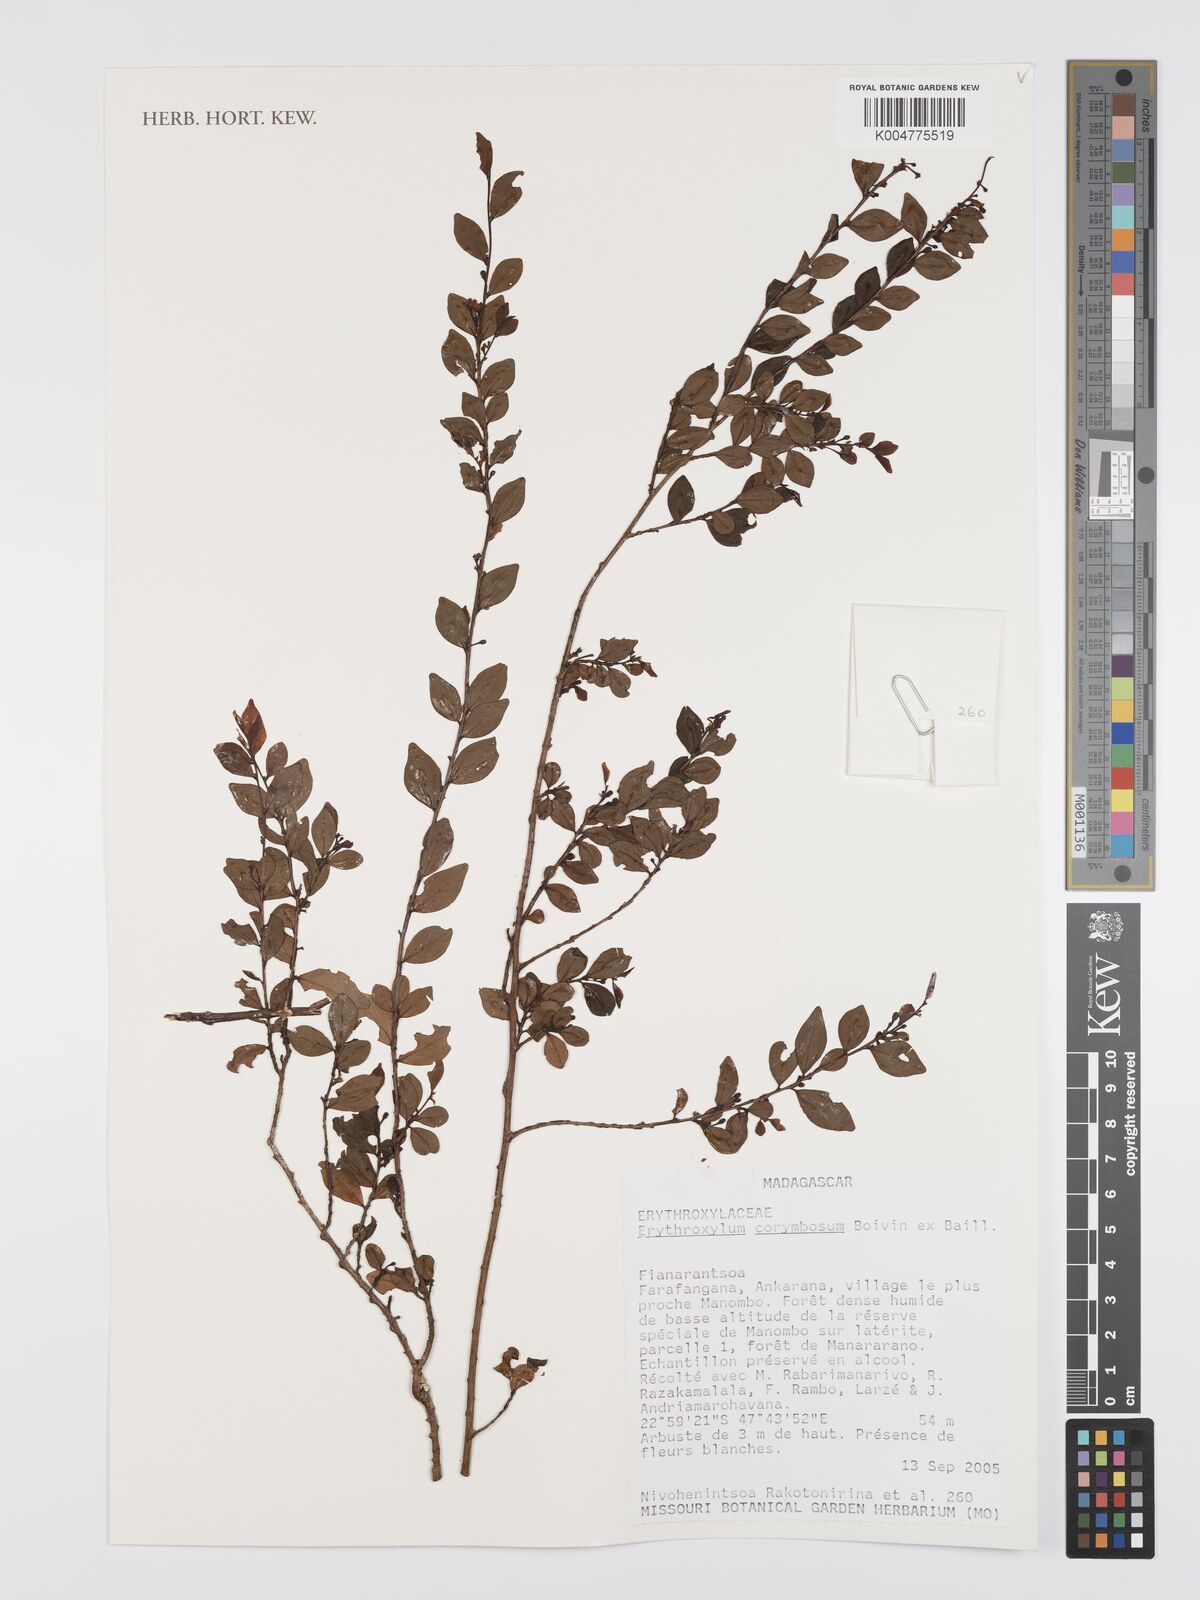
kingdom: Plantae
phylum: Tracheophyta
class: Magnoliopsida
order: Malpighiales
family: Erythroxylaceae
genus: Erythroxylum
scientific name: Erythroxylum corymbosum
